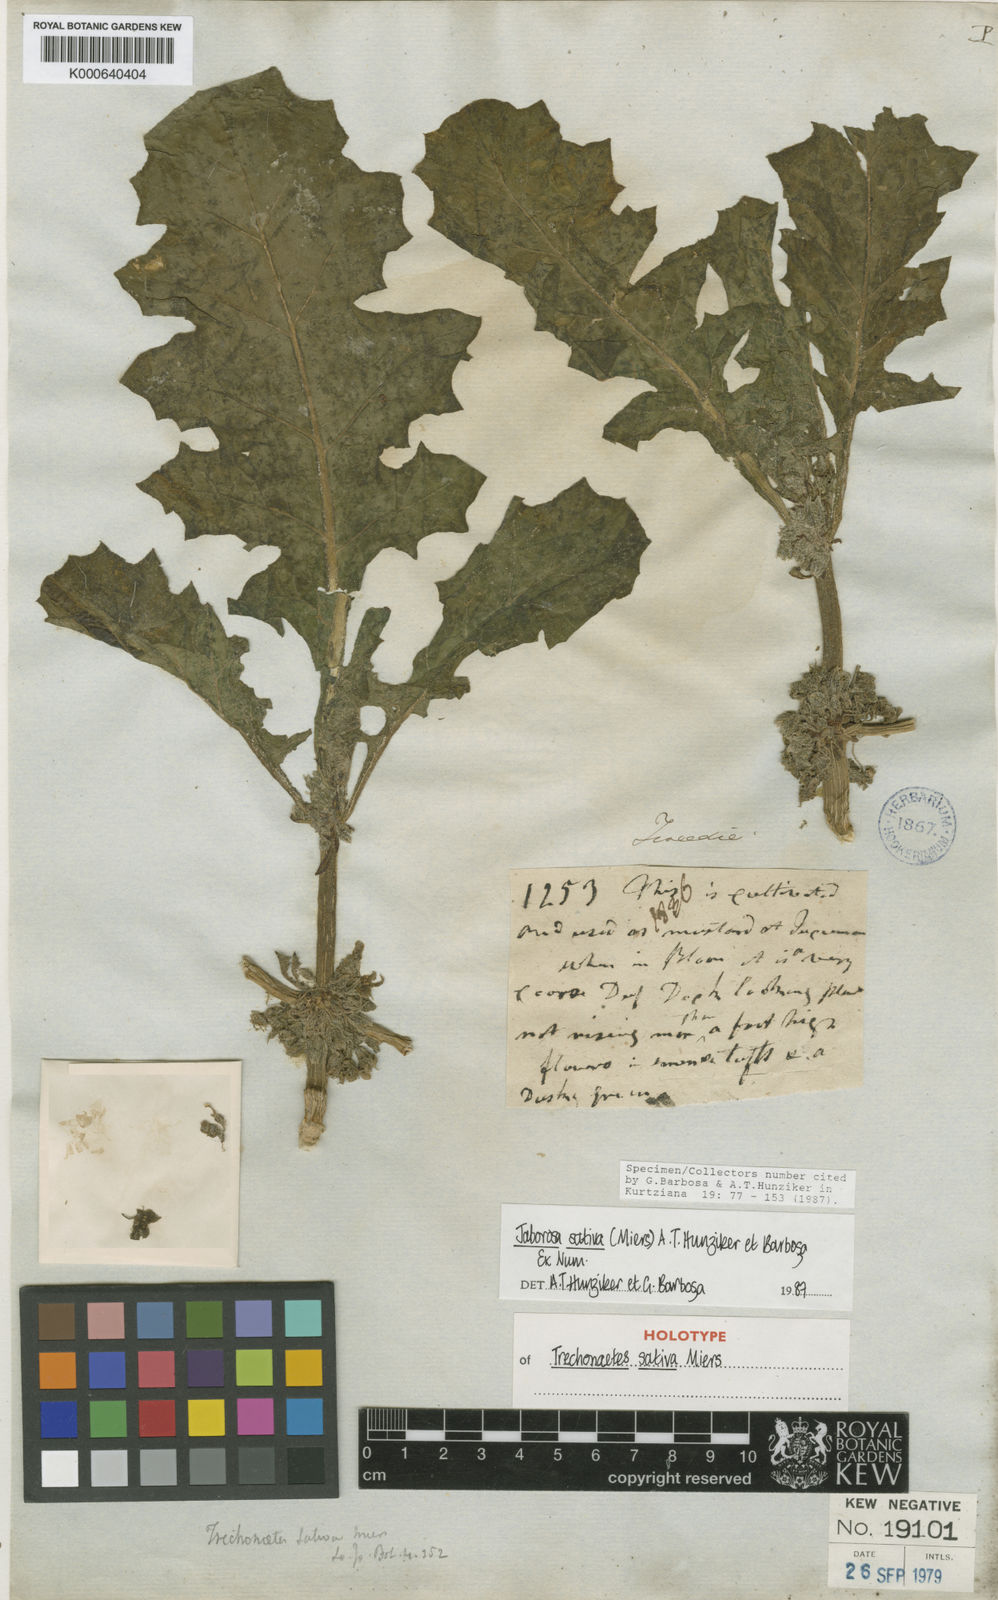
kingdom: Plantae
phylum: Tracheophyta
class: Magnoliopsida
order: Solanales
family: Solanaceae
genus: Jaborosa
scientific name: Jaborosa sativa
